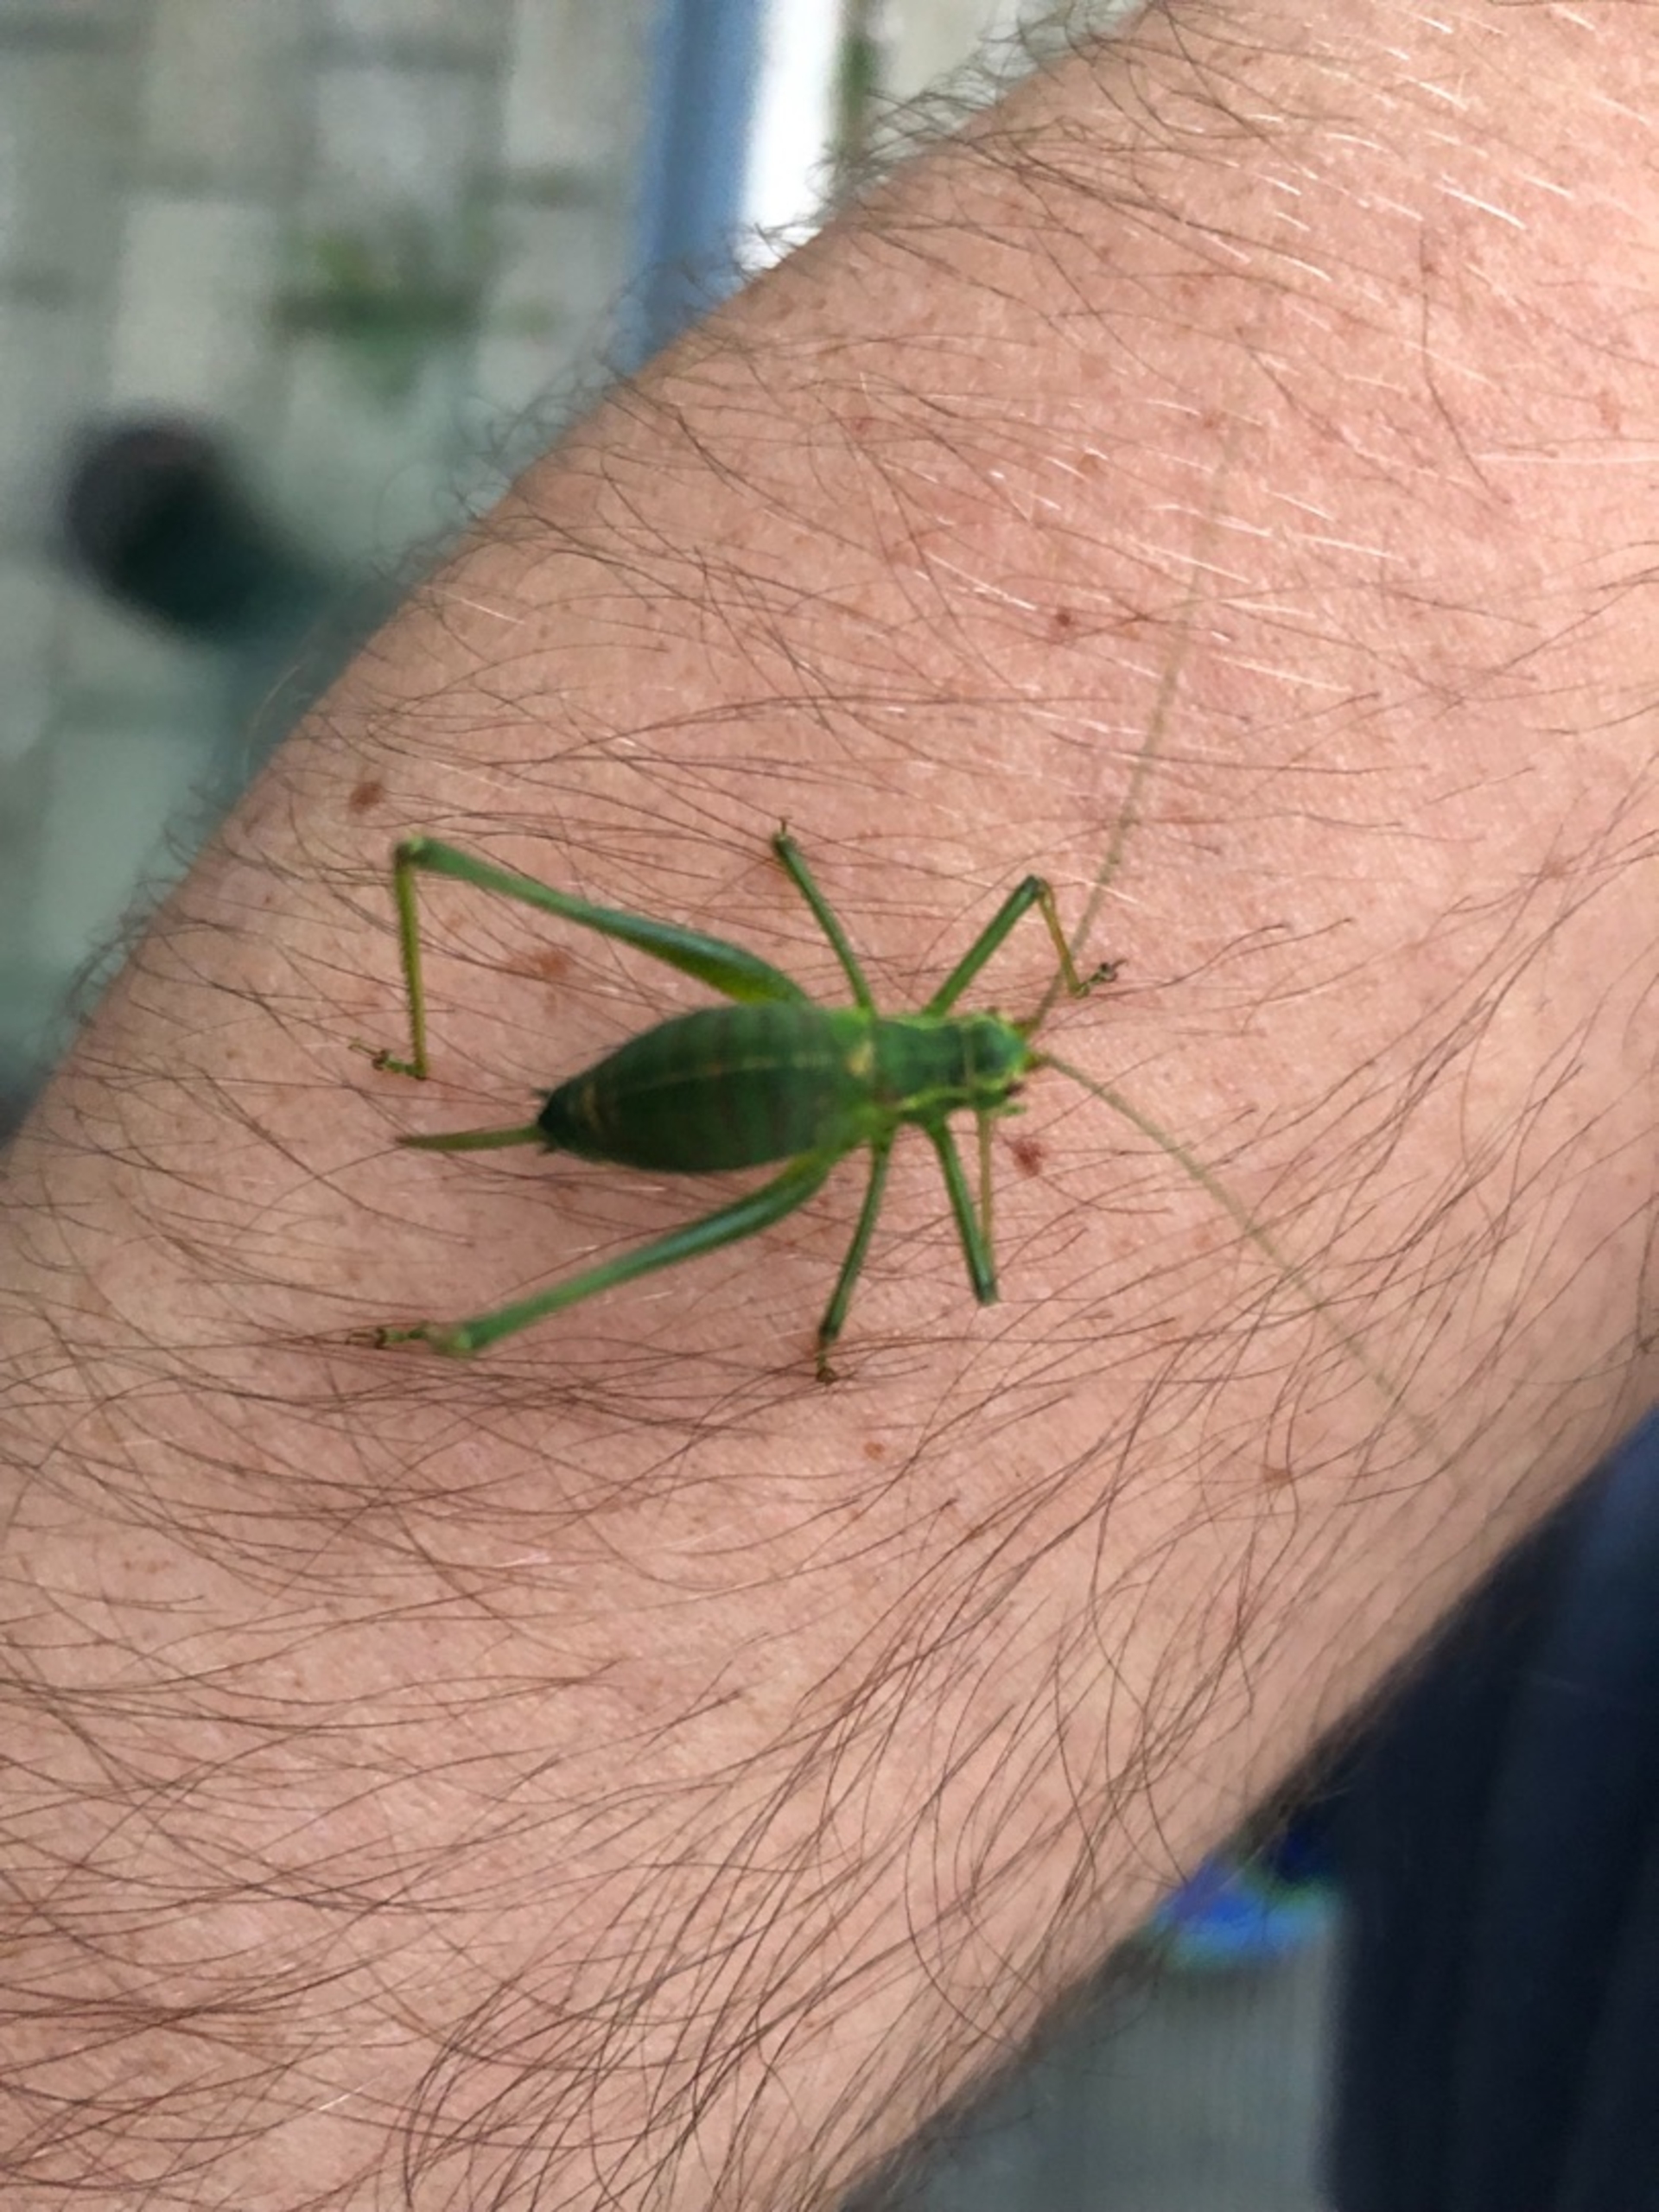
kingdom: Animalia
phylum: Arthropoda
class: Insecta
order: Orthoptera
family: Tettigoniidae
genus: Leptophyes
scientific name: Leptophyes punctatissima
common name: Krumknivgræshoppe
